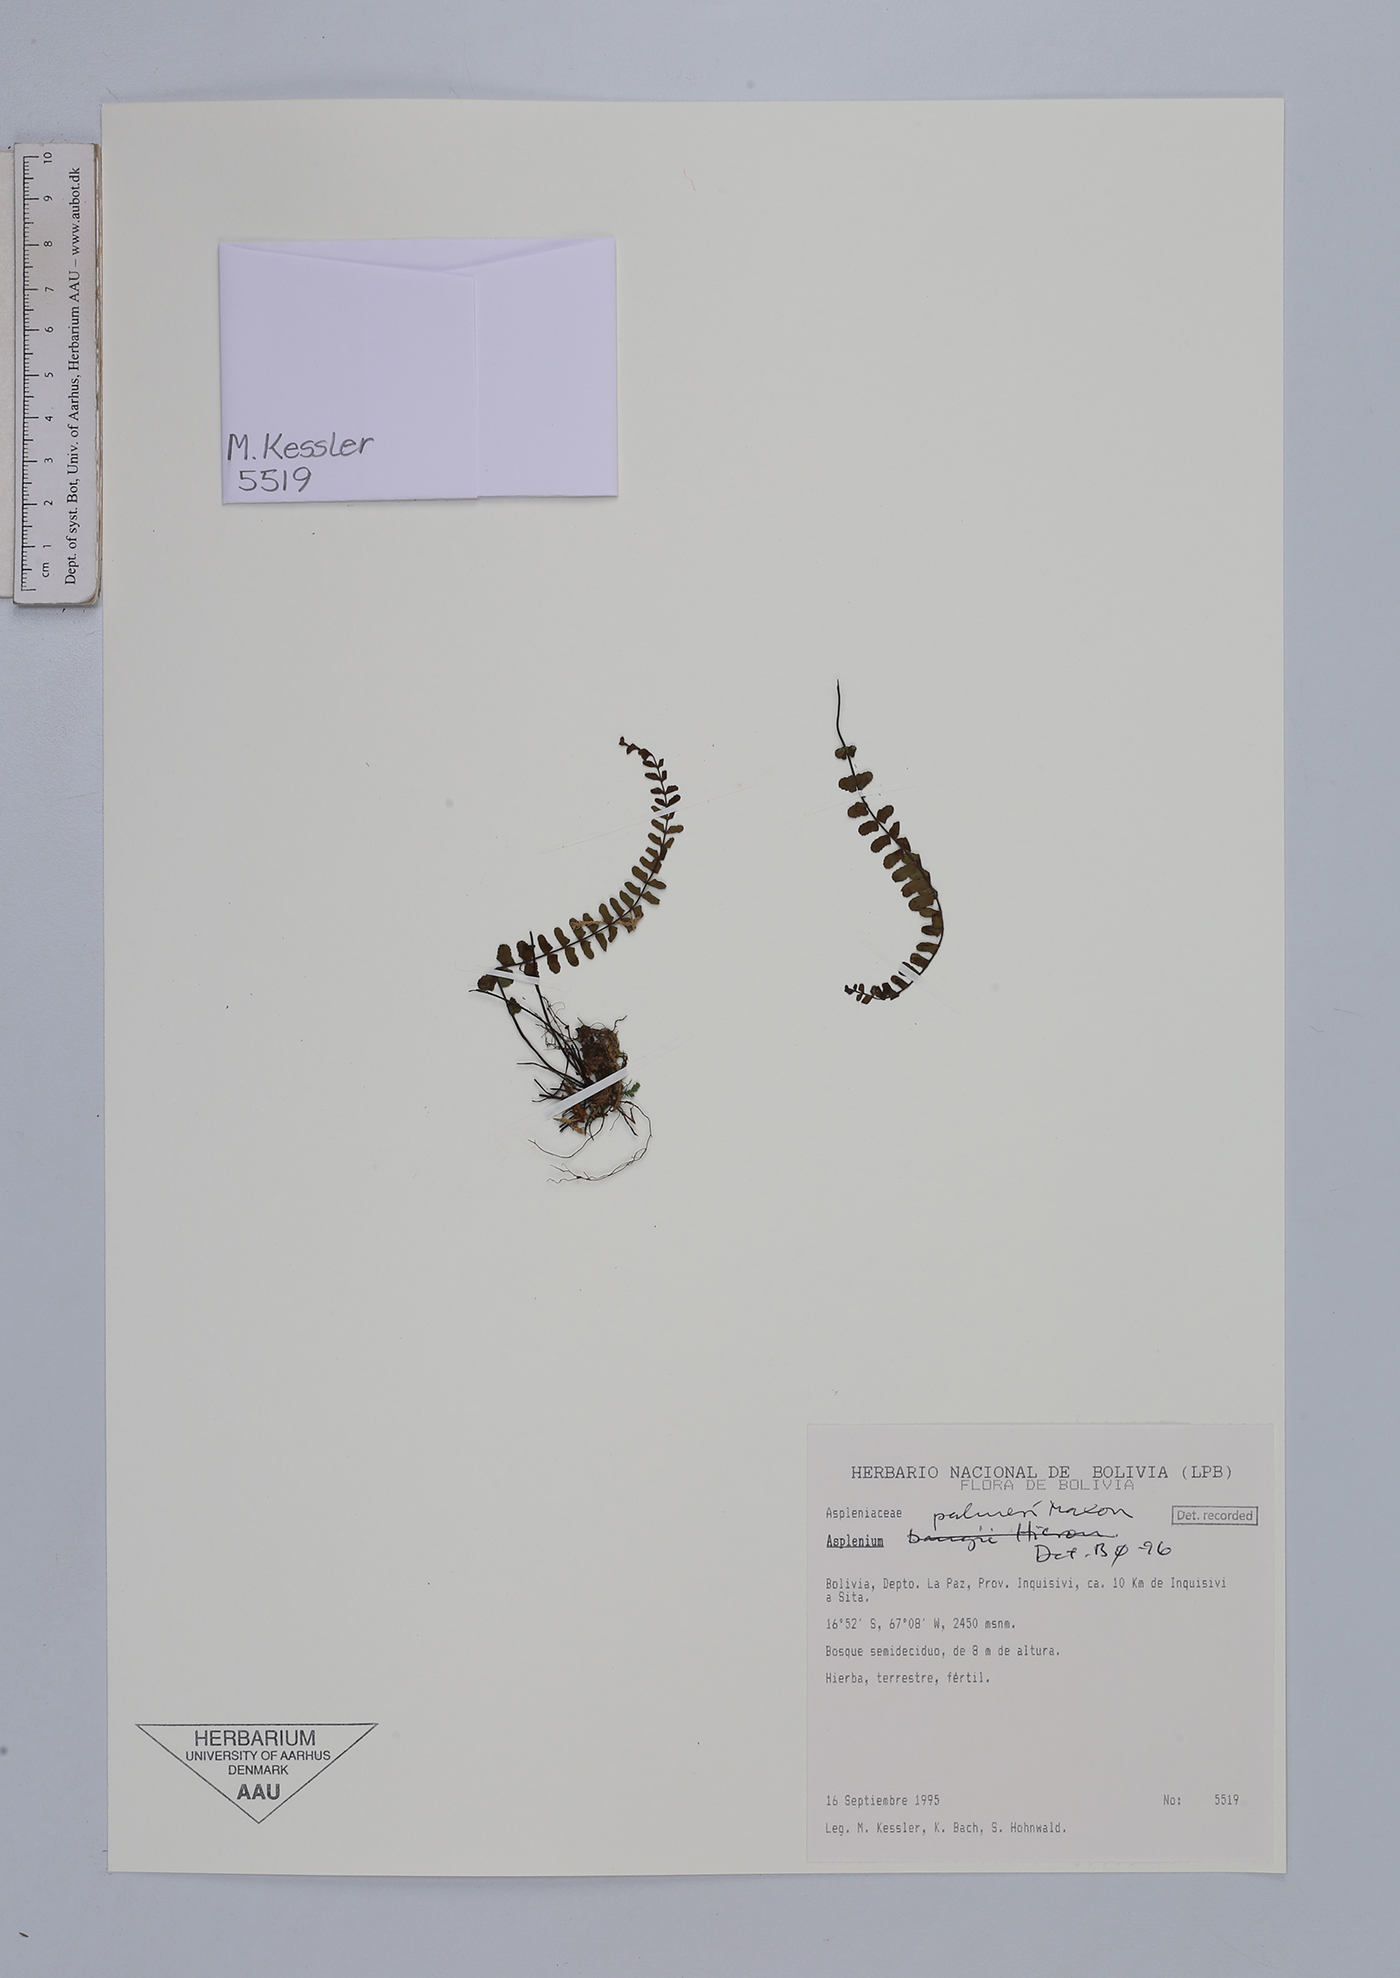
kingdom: Plantae
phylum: Tracheophyta
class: Polypodiopsida
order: Polypodiales
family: Aspleniaceae
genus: Asplenium
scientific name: Asplenium palmeri
